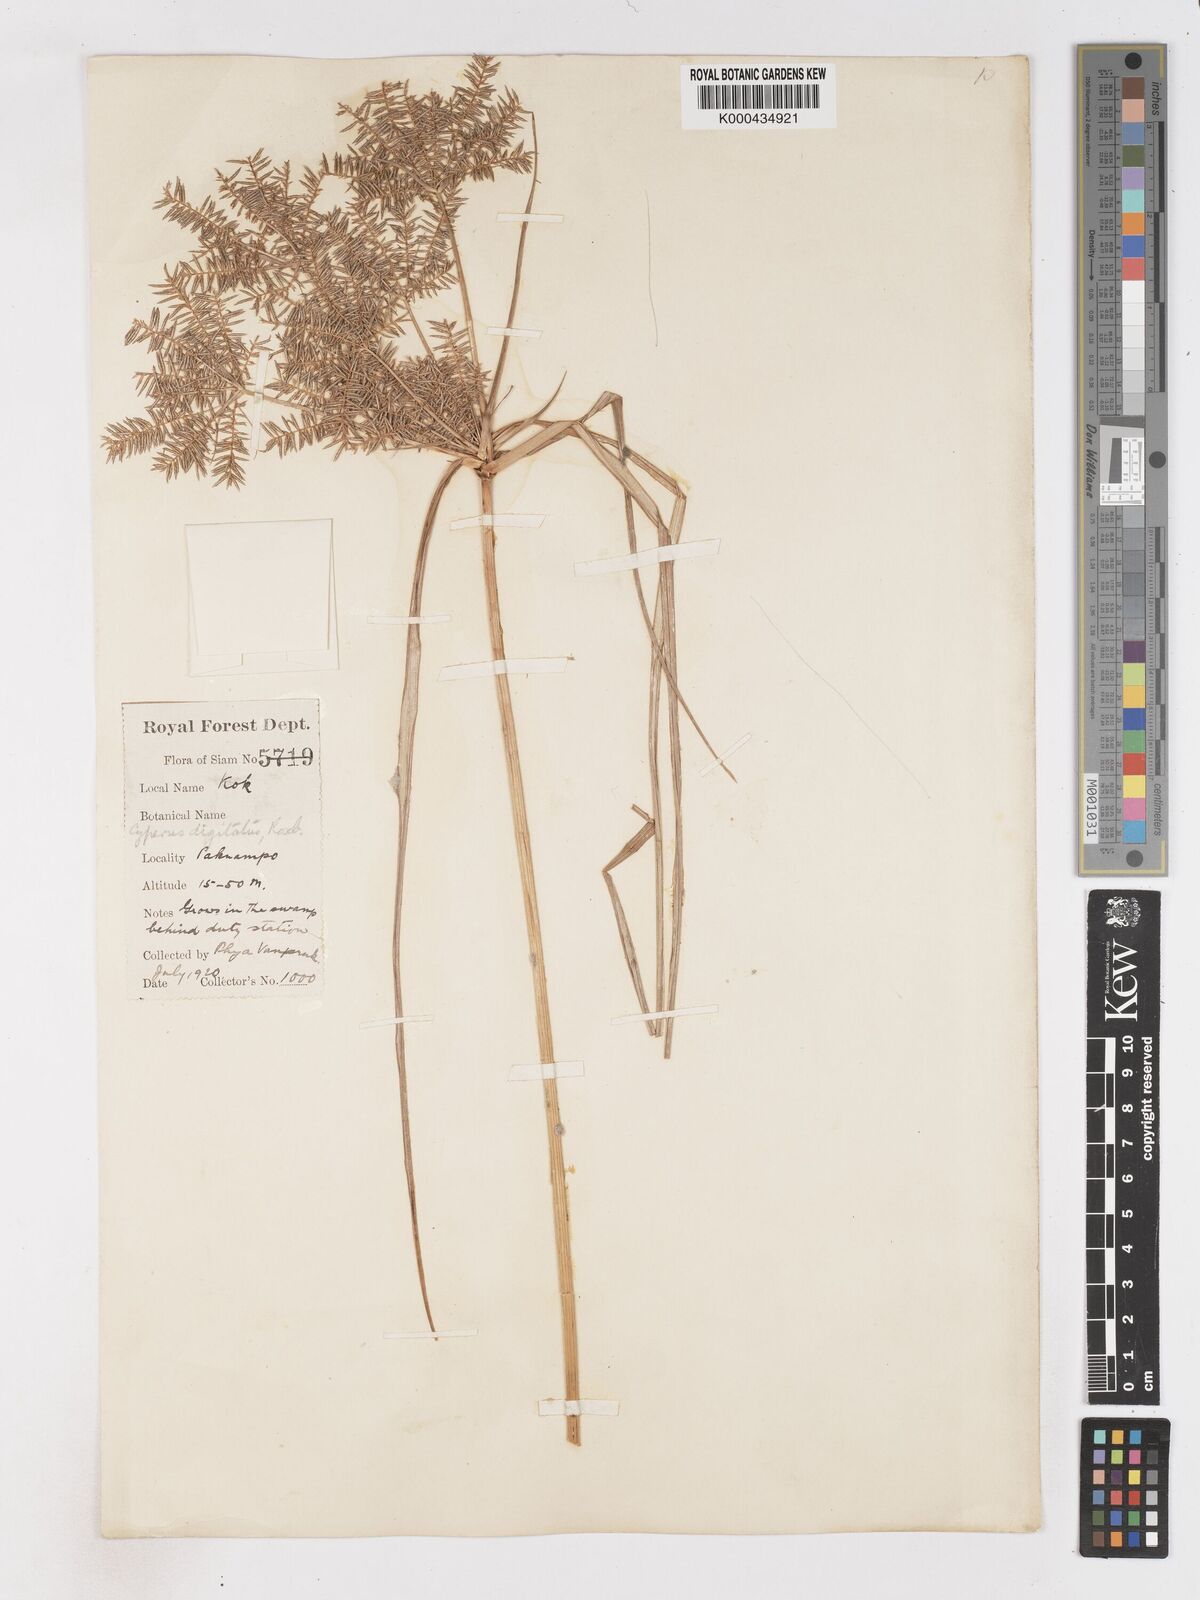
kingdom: Plantae
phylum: Tracheophyta
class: Liliopsida
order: Poales
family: Cyperaceae
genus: Cyperus
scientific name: Cyperus digitatus
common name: Finger flatsedge
